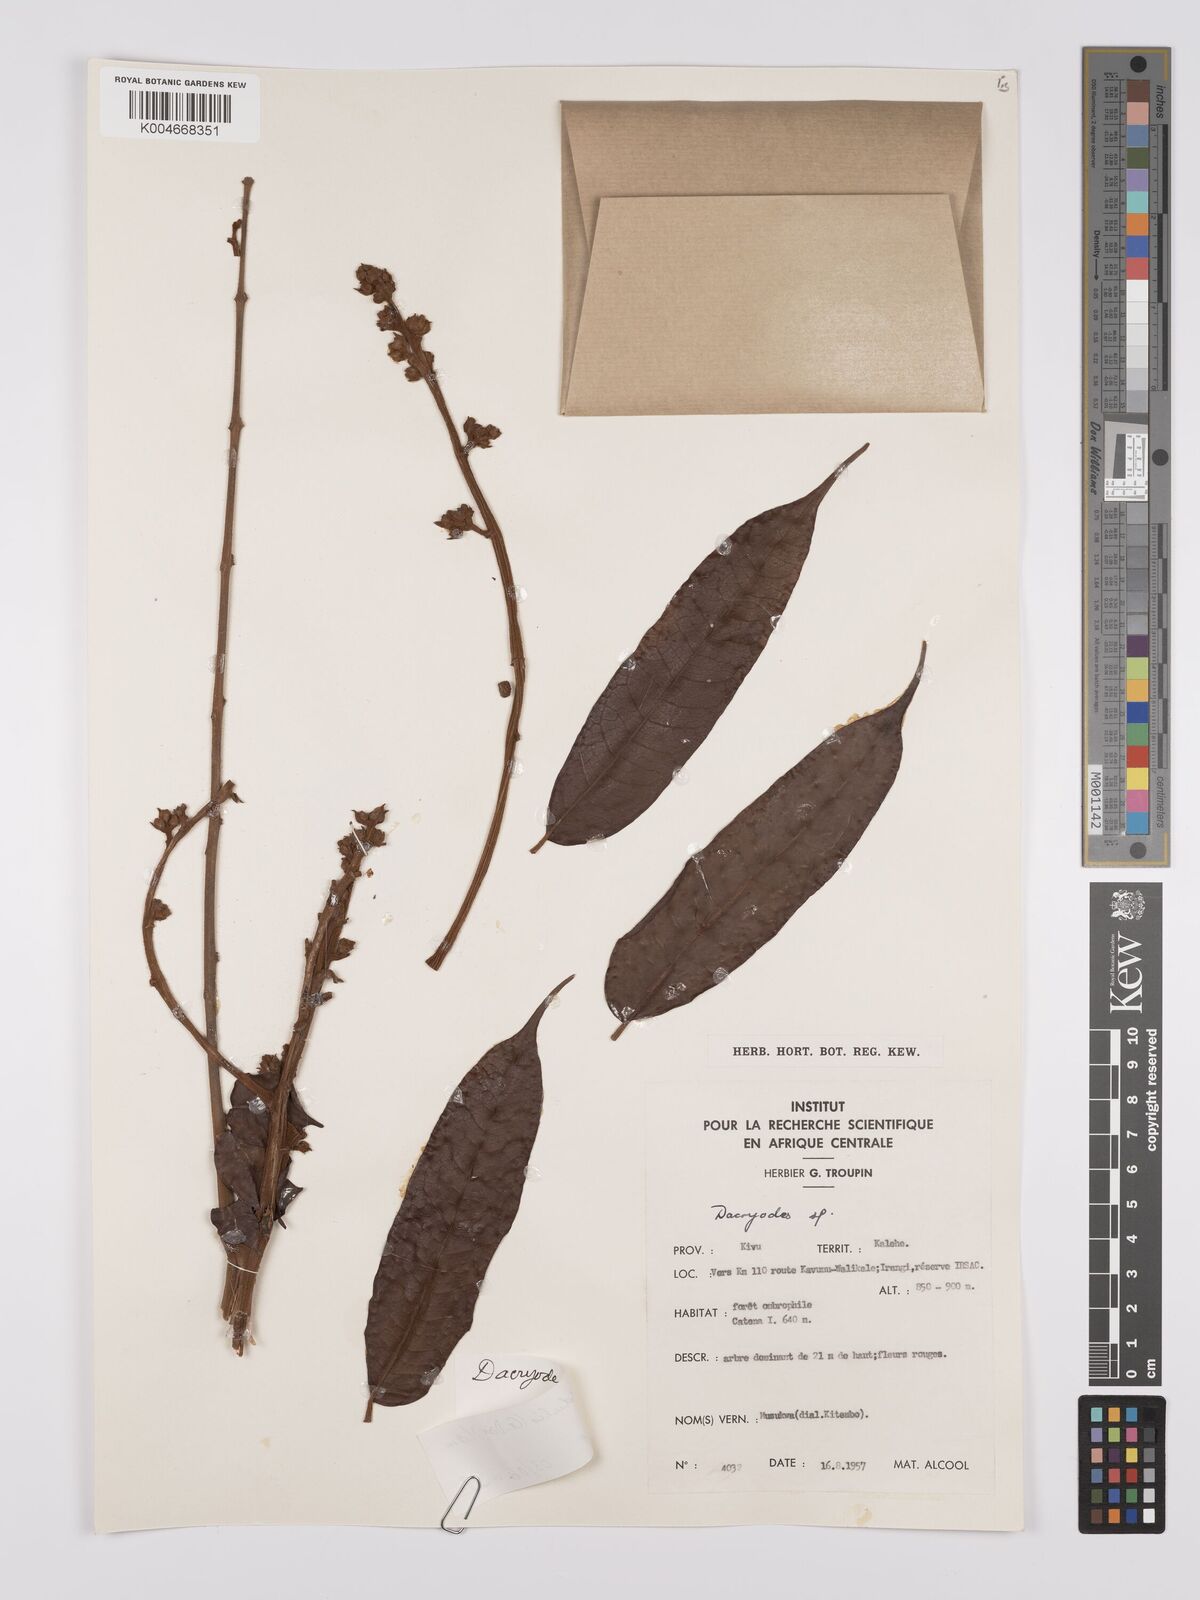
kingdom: Plantae
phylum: Tracheophyta
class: Magnoliopsida
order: Sapindales
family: Burseraceae
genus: Pachylobus
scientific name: Pachylobus edulis
